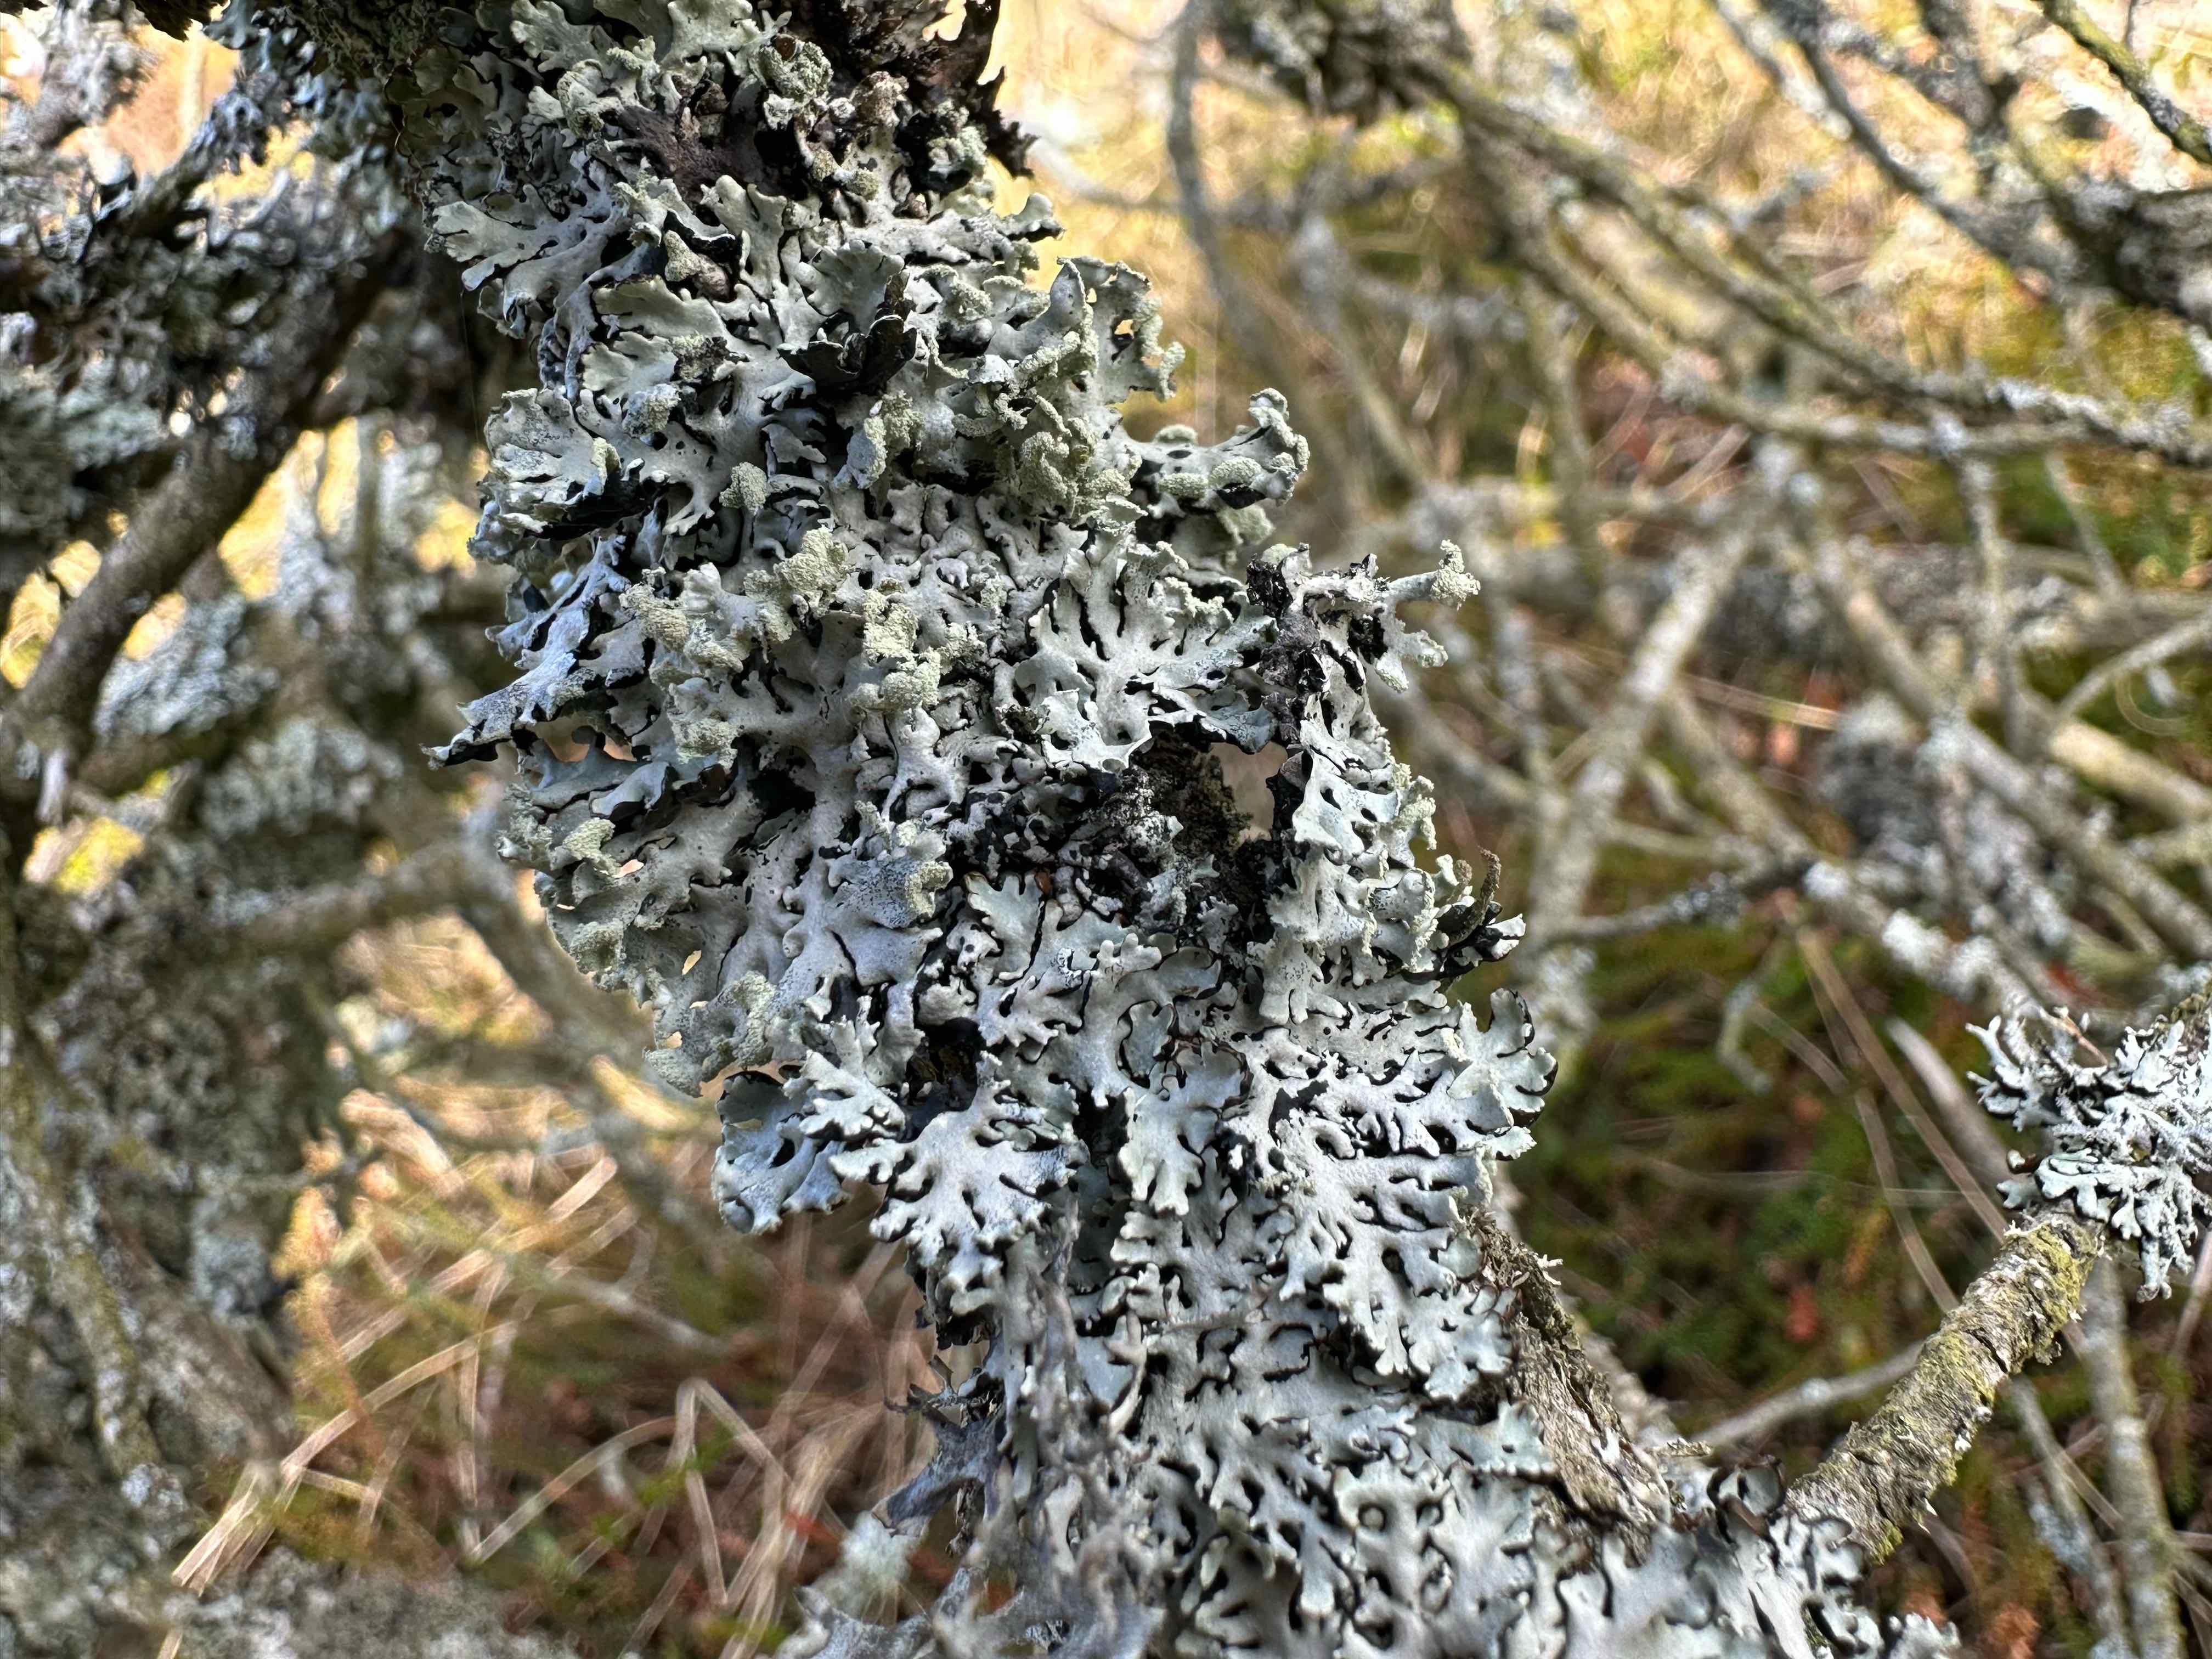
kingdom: Fungi
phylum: Ascomycota
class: Lecanoromycetes
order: Lecanorales
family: Parmeliaceae
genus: Hypogymnia
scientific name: Hypogymnia physodes
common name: almindelig kvistlav
